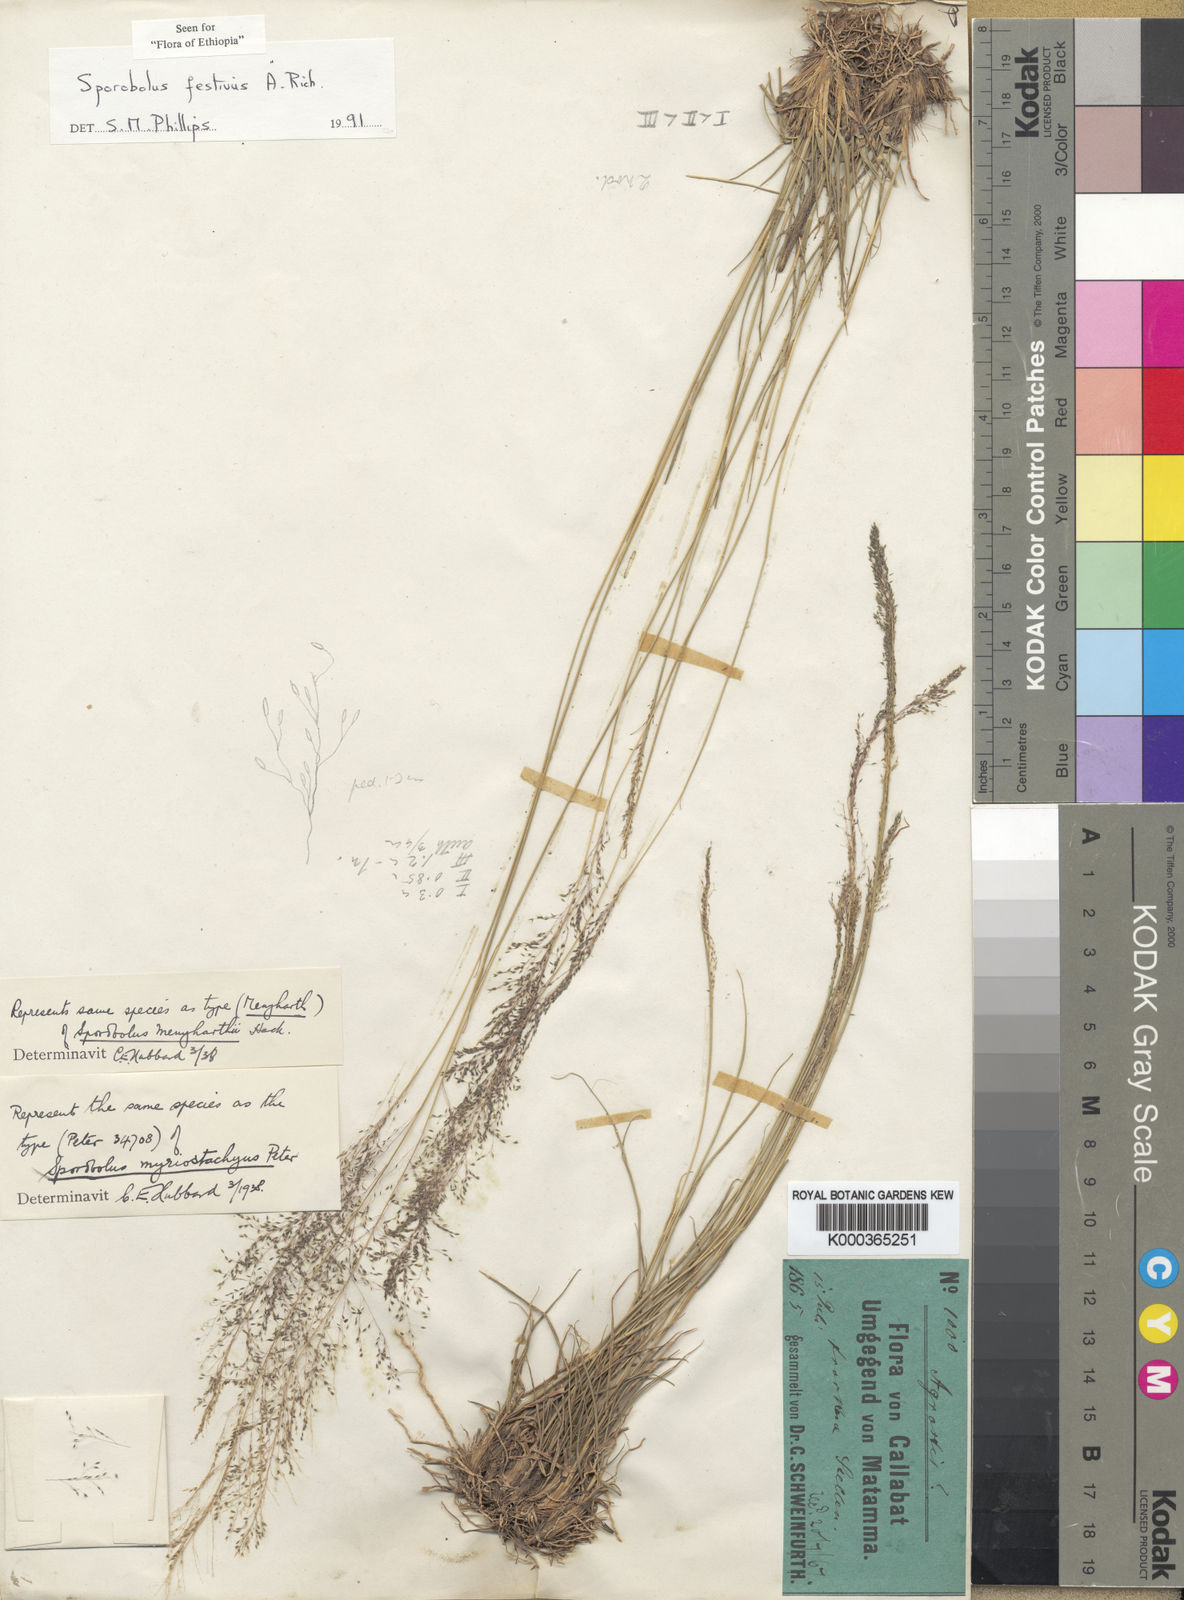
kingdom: Plantae
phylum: Tracheophyta
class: Liliopsida
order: Poales
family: Poaceae
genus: Sporobolus
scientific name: Sporobolus festivus
